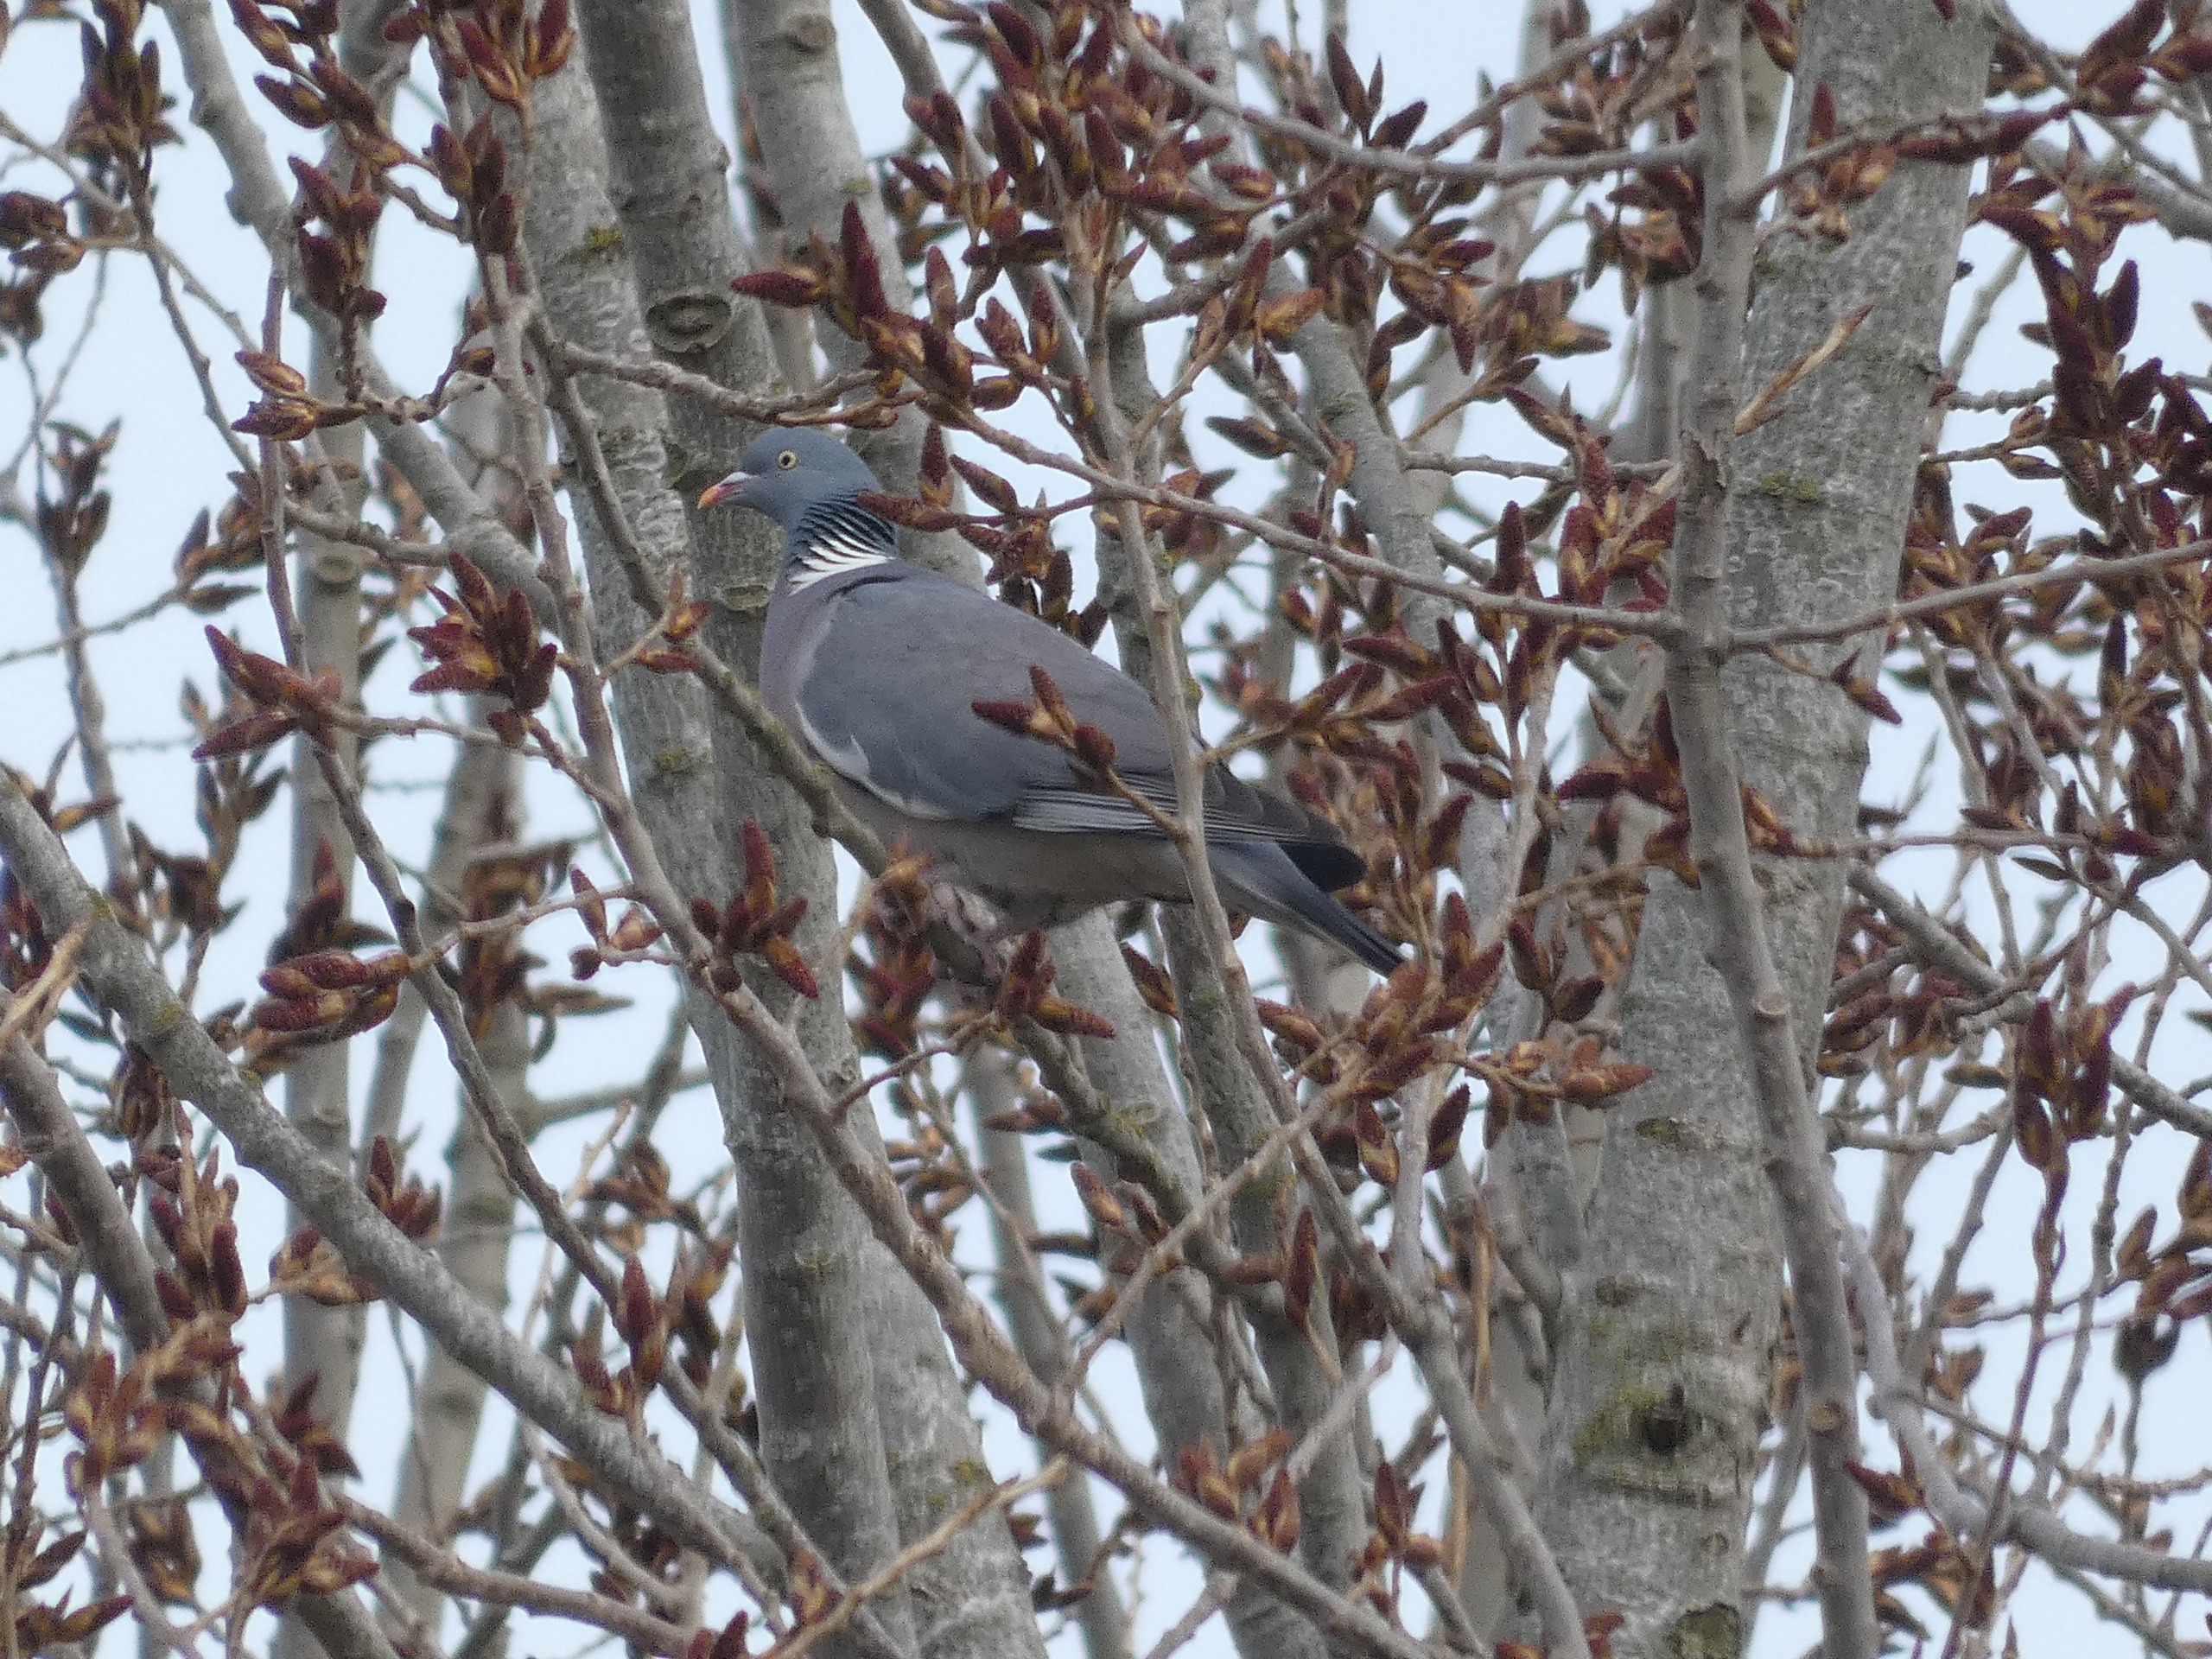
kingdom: Animalia
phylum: Chordata
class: Aves
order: Columbiformes
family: Columbidae
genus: Columba
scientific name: Columba palumbus
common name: Ringdue
